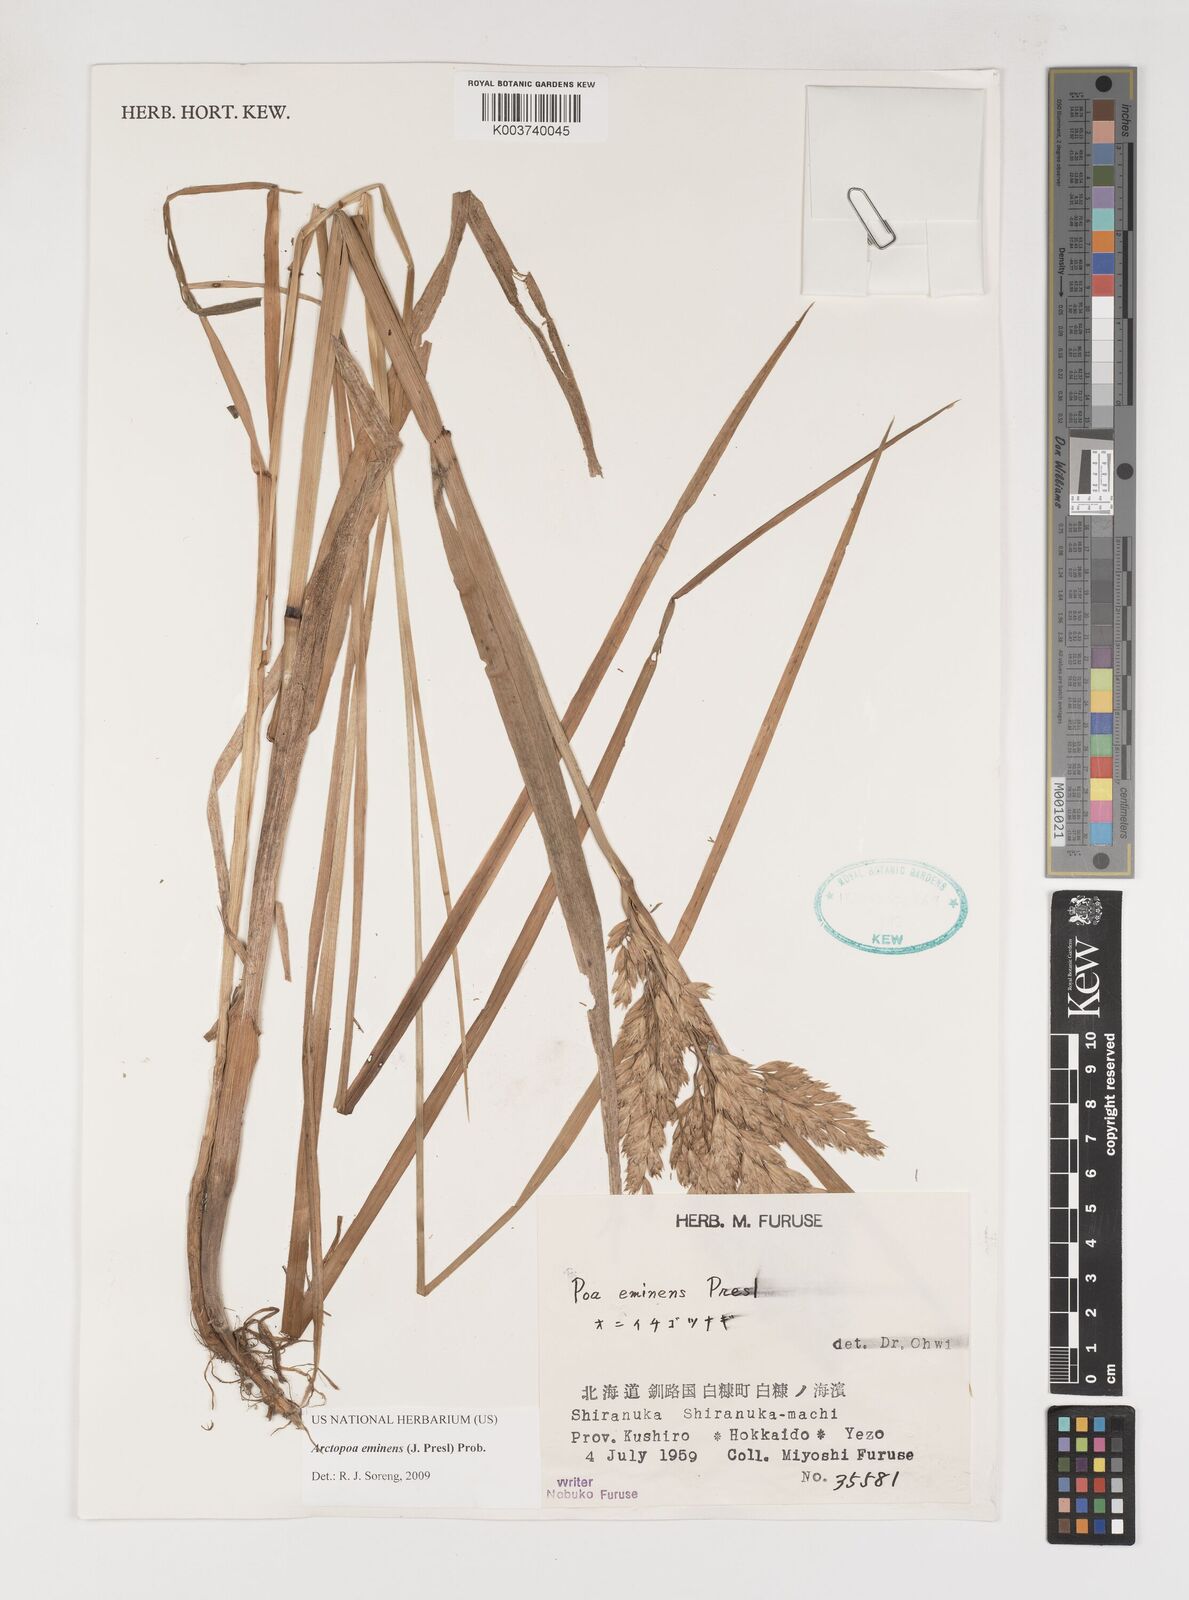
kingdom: Plantae
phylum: Tracheophyta
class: Liliopsida
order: Poales
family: Poaceae
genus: Arctopoa
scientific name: Arctopoa eminens
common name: Eminent bluegrass
